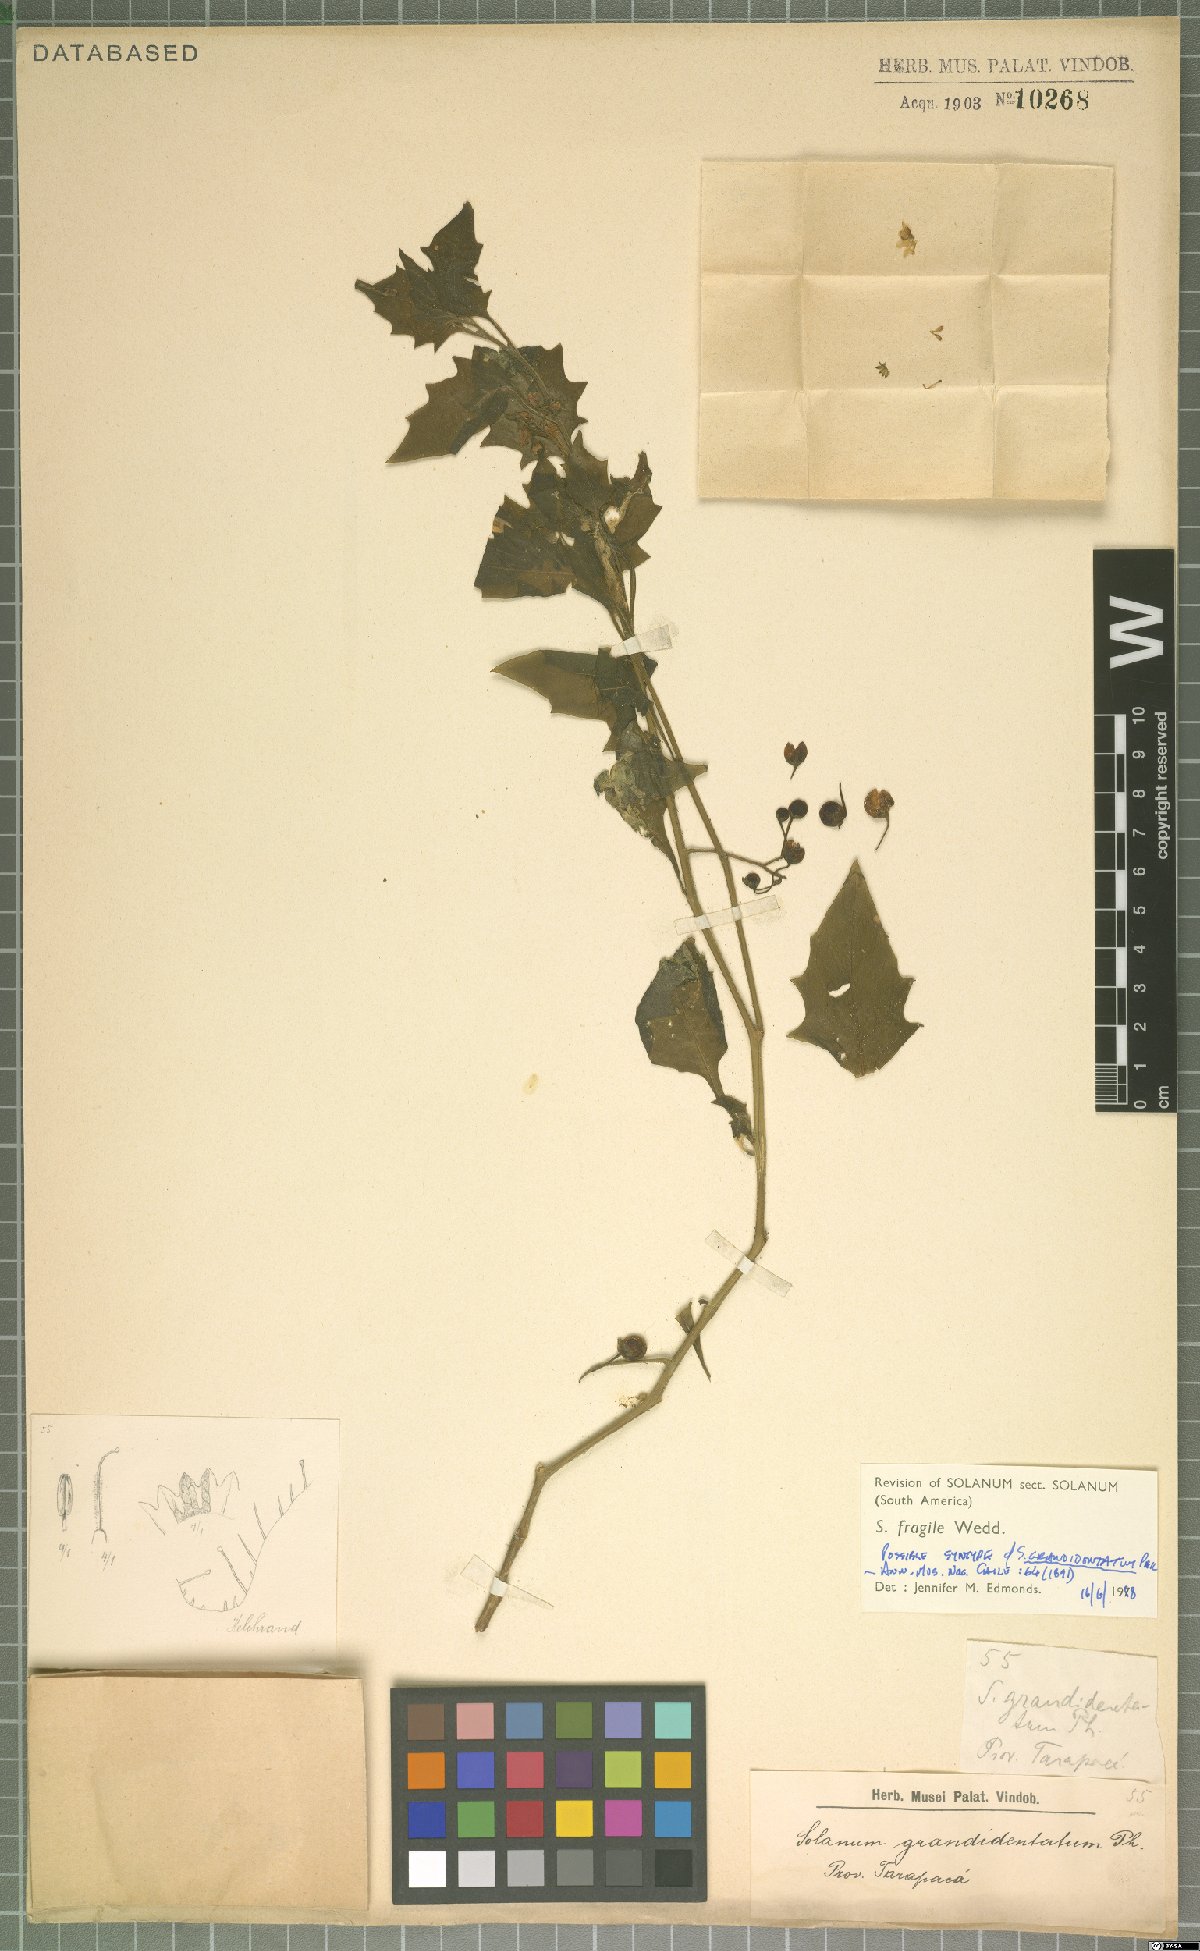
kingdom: Plantae
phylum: Tracheophyta
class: Magnoliopsida
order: Solanales
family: Solanaceae
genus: Solanum
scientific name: Solanum grandidentatum
